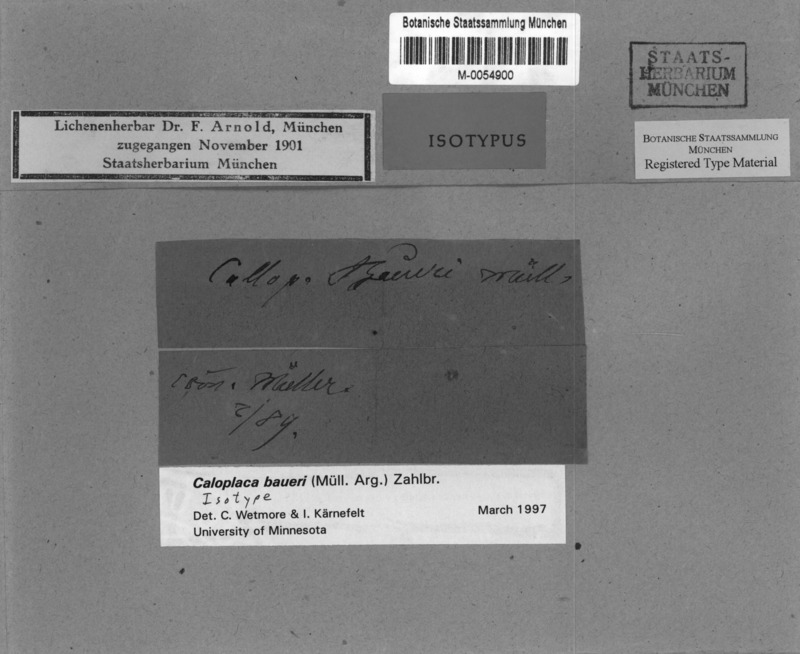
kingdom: Fungi
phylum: Ascomycota
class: Lecanoromycetes
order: Teloschistales
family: Teloschistaceae
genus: Caloplaca
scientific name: Caloplaca
